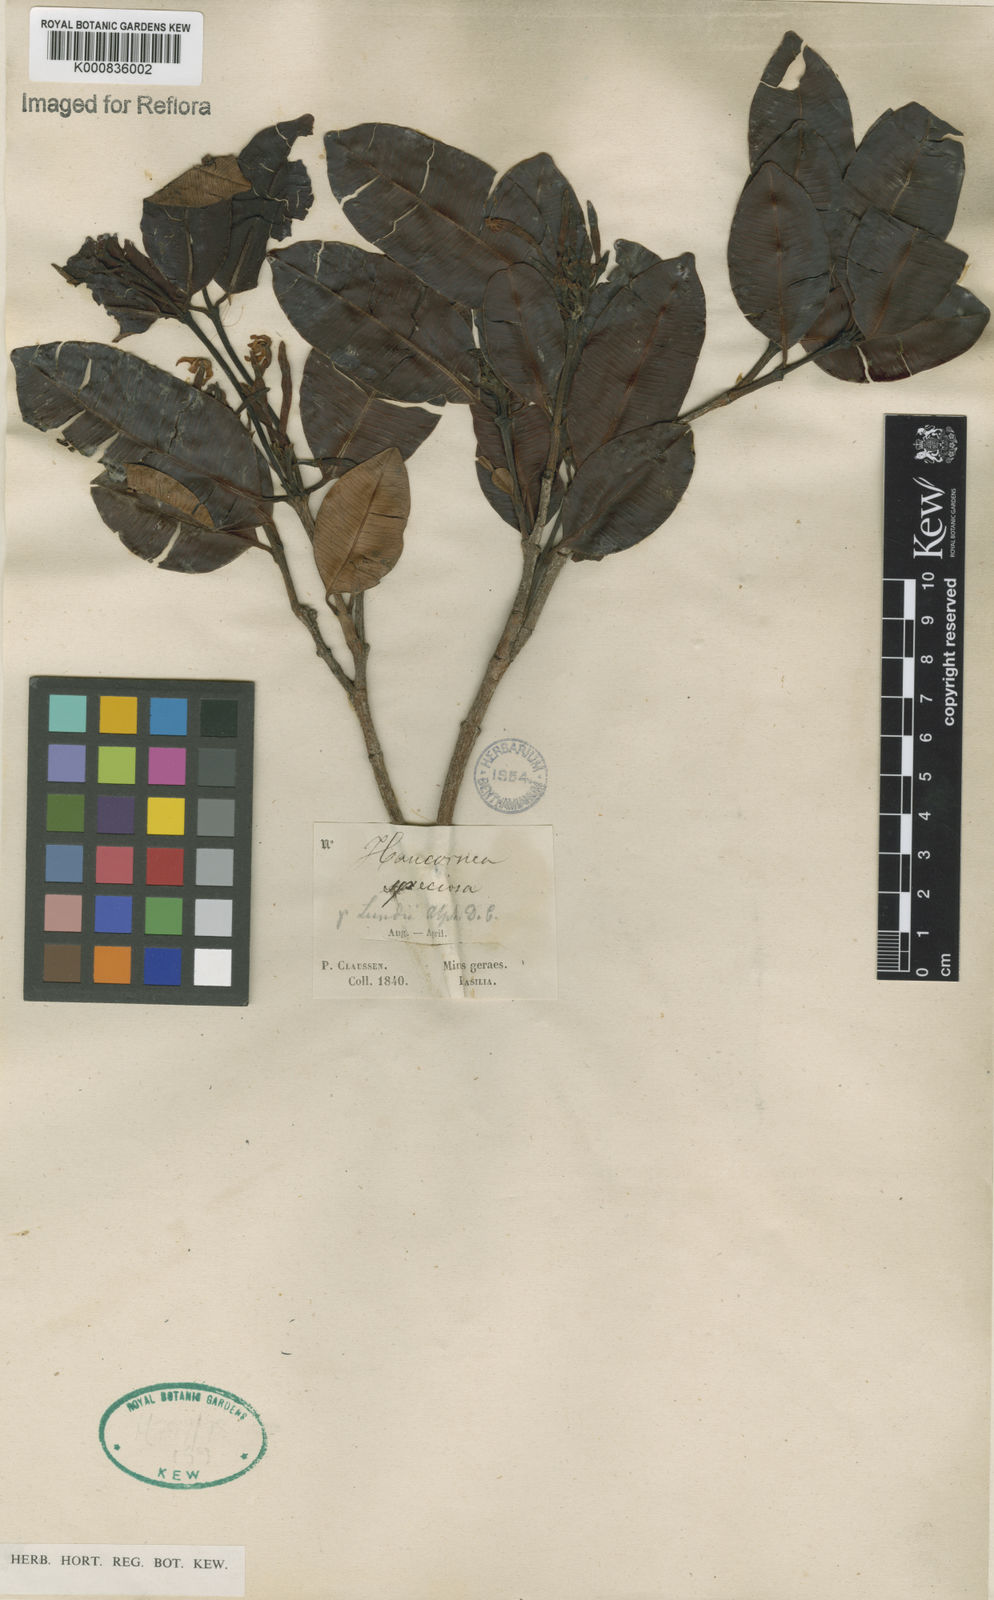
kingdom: Plantae
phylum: Tracheophyta
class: Magnoliopsida
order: Gentianales
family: Apocynaceae
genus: Hancornia
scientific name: Hancornia speciosa
